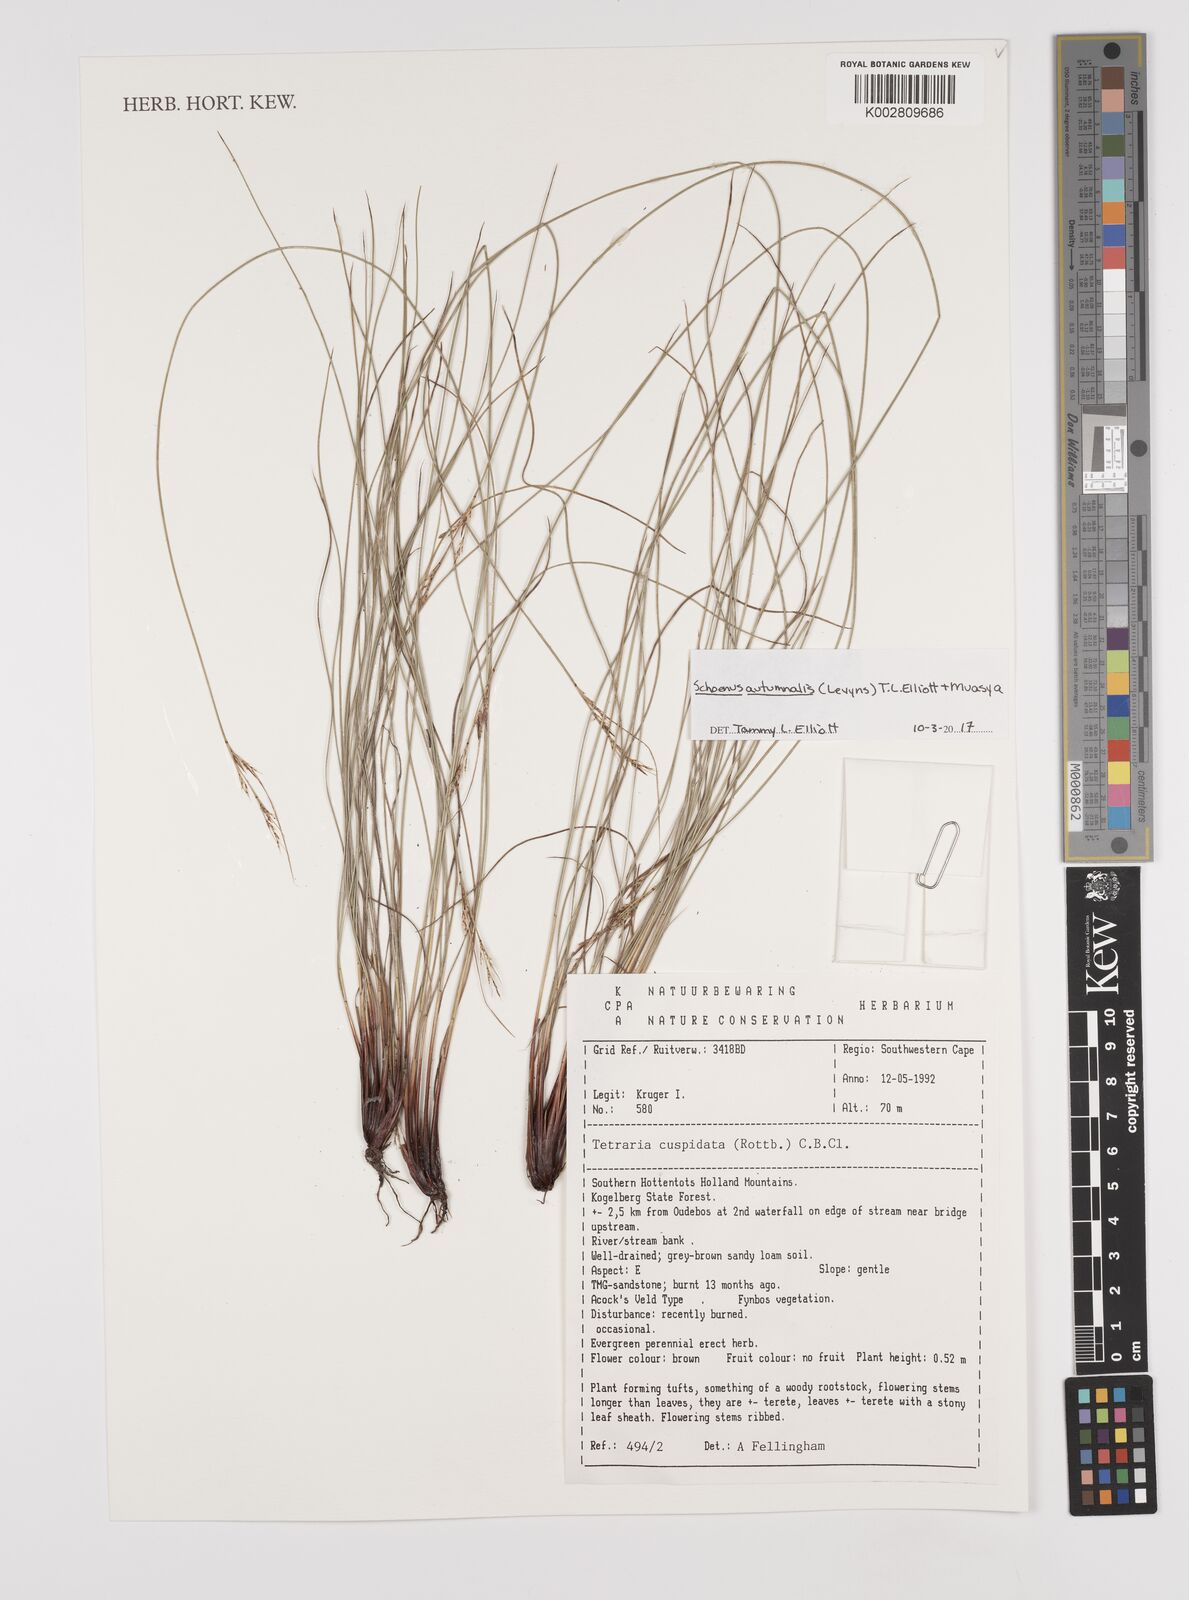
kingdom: Plantae
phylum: Tracheophyta
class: Liliopsida
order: Poales
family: Cyperaceae
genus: Schoenus
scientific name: Schoenus ligulatus
